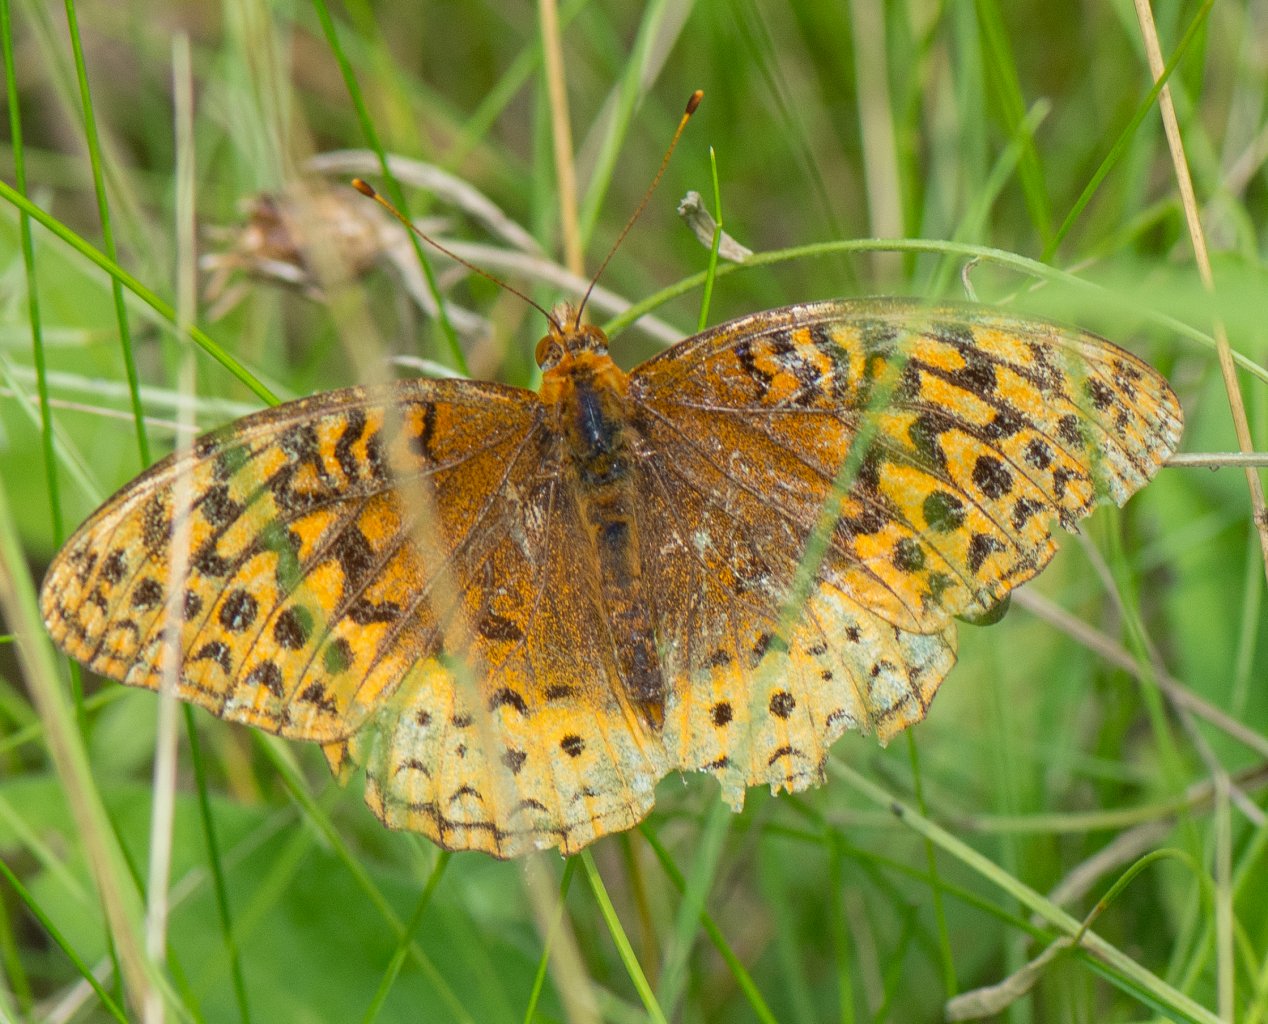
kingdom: Animalia
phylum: Arthropoda
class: Insecta
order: Lepidoptera
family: Nymphalidae
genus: Speyeria
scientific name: Speyeria cybele
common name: Great Spangled Fritillary
